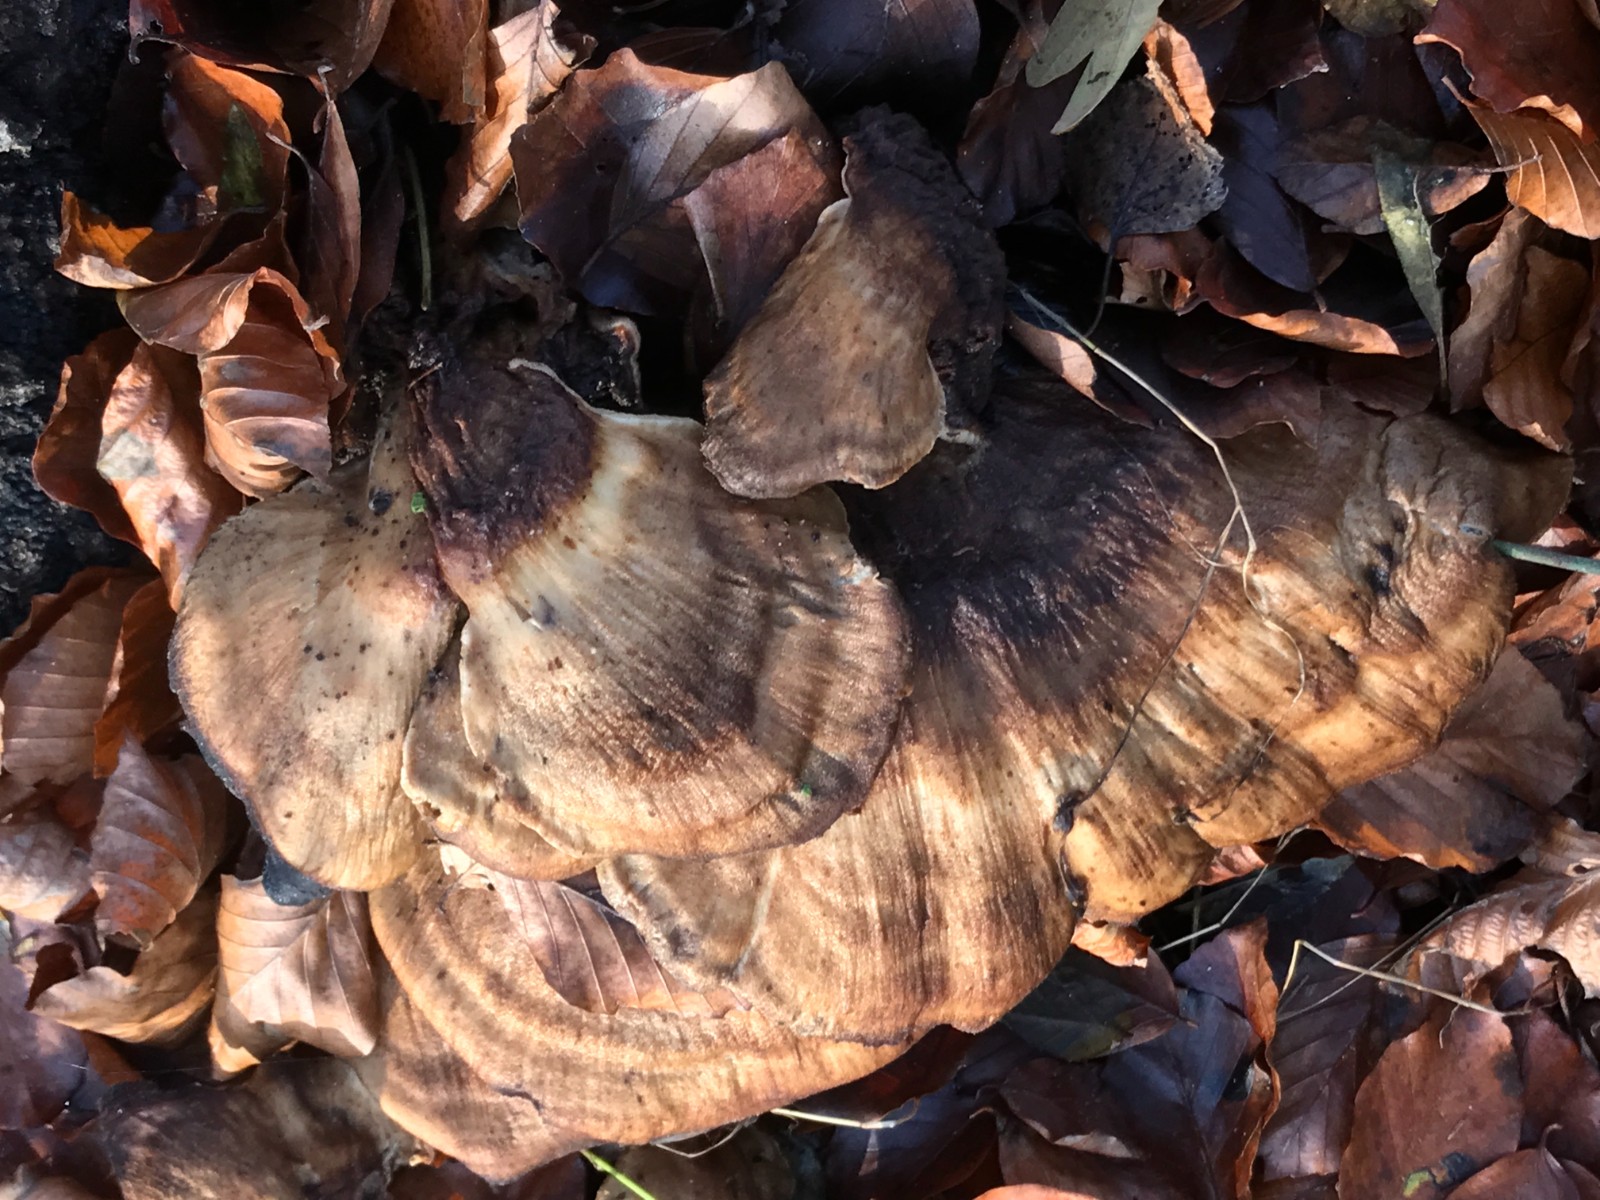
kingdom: Fungi
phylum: Basidiomycota
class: Agaricomycetes
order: Polyporales
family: Meripilaceae
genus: Meripilus
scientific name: Meripilus giganteus
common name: kæmpeporesvamp
